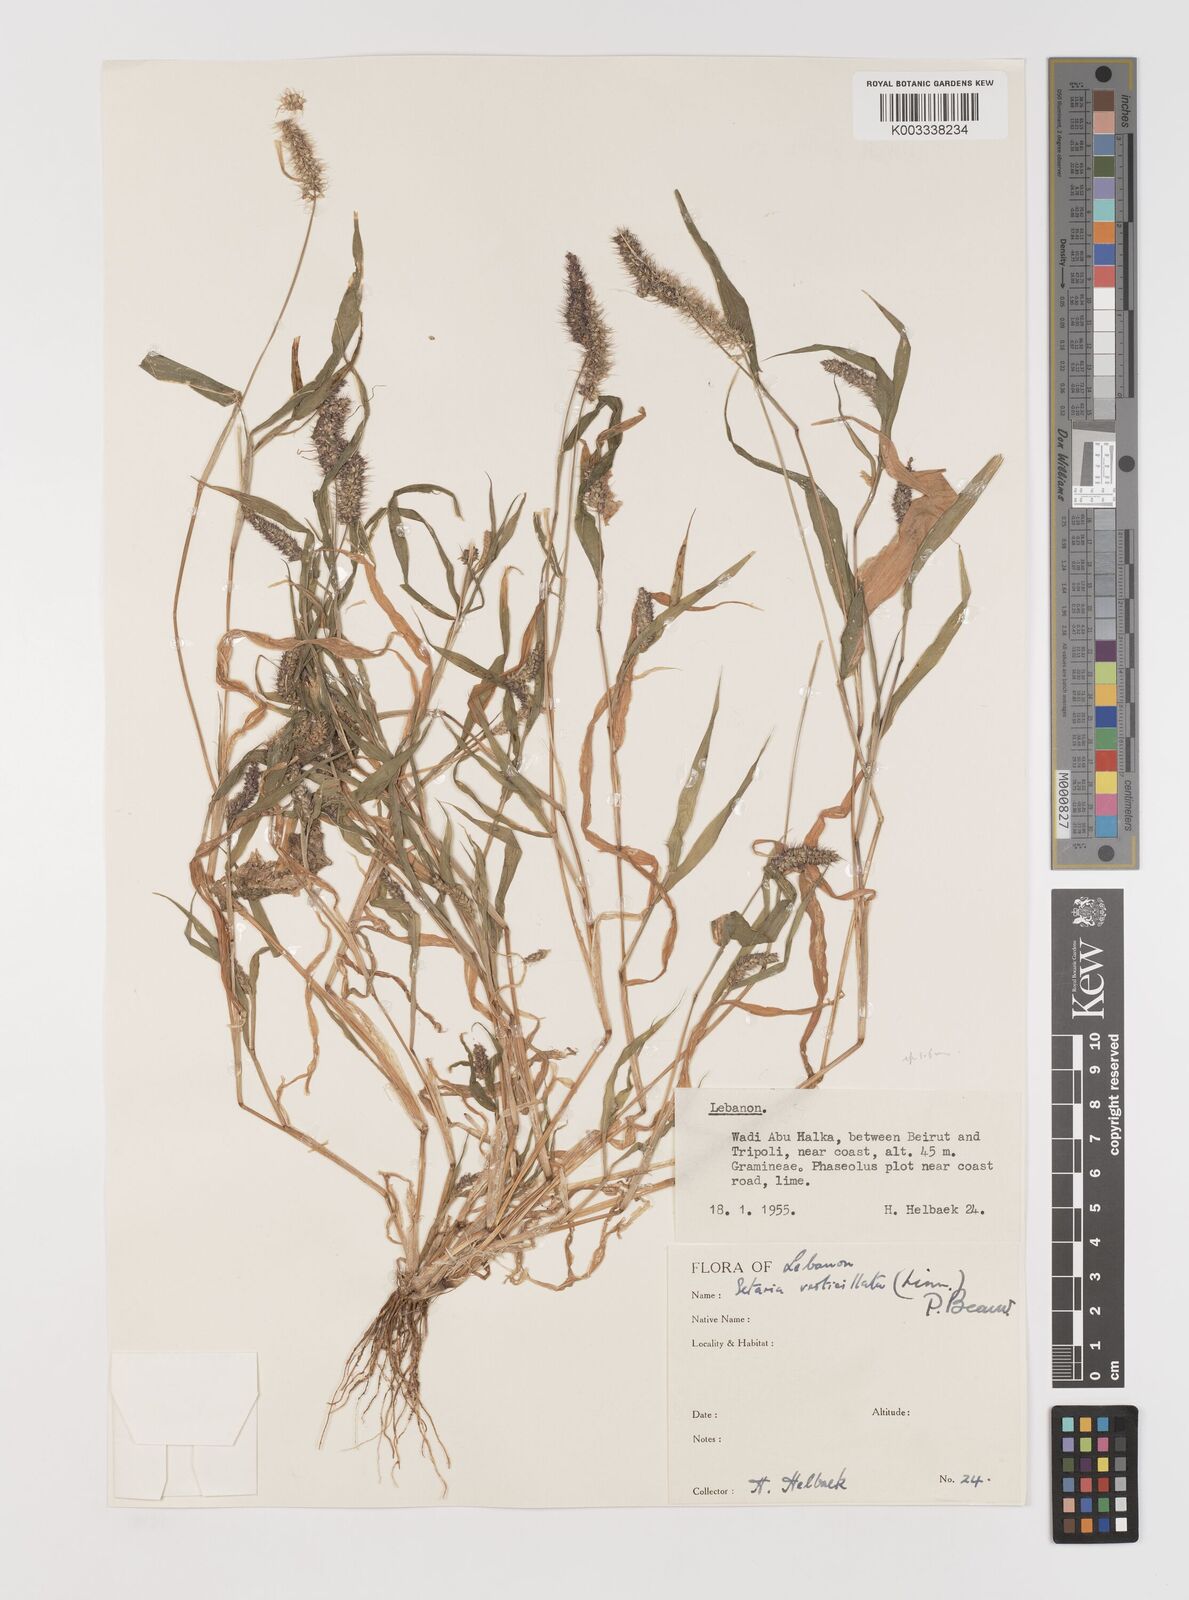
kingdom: Plantae
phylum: Tracheophyta
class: Liliopsida
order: Poales
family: Poaceae
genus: Setaria
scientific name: Setaria verticillata
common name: Hooked bristlegrass
